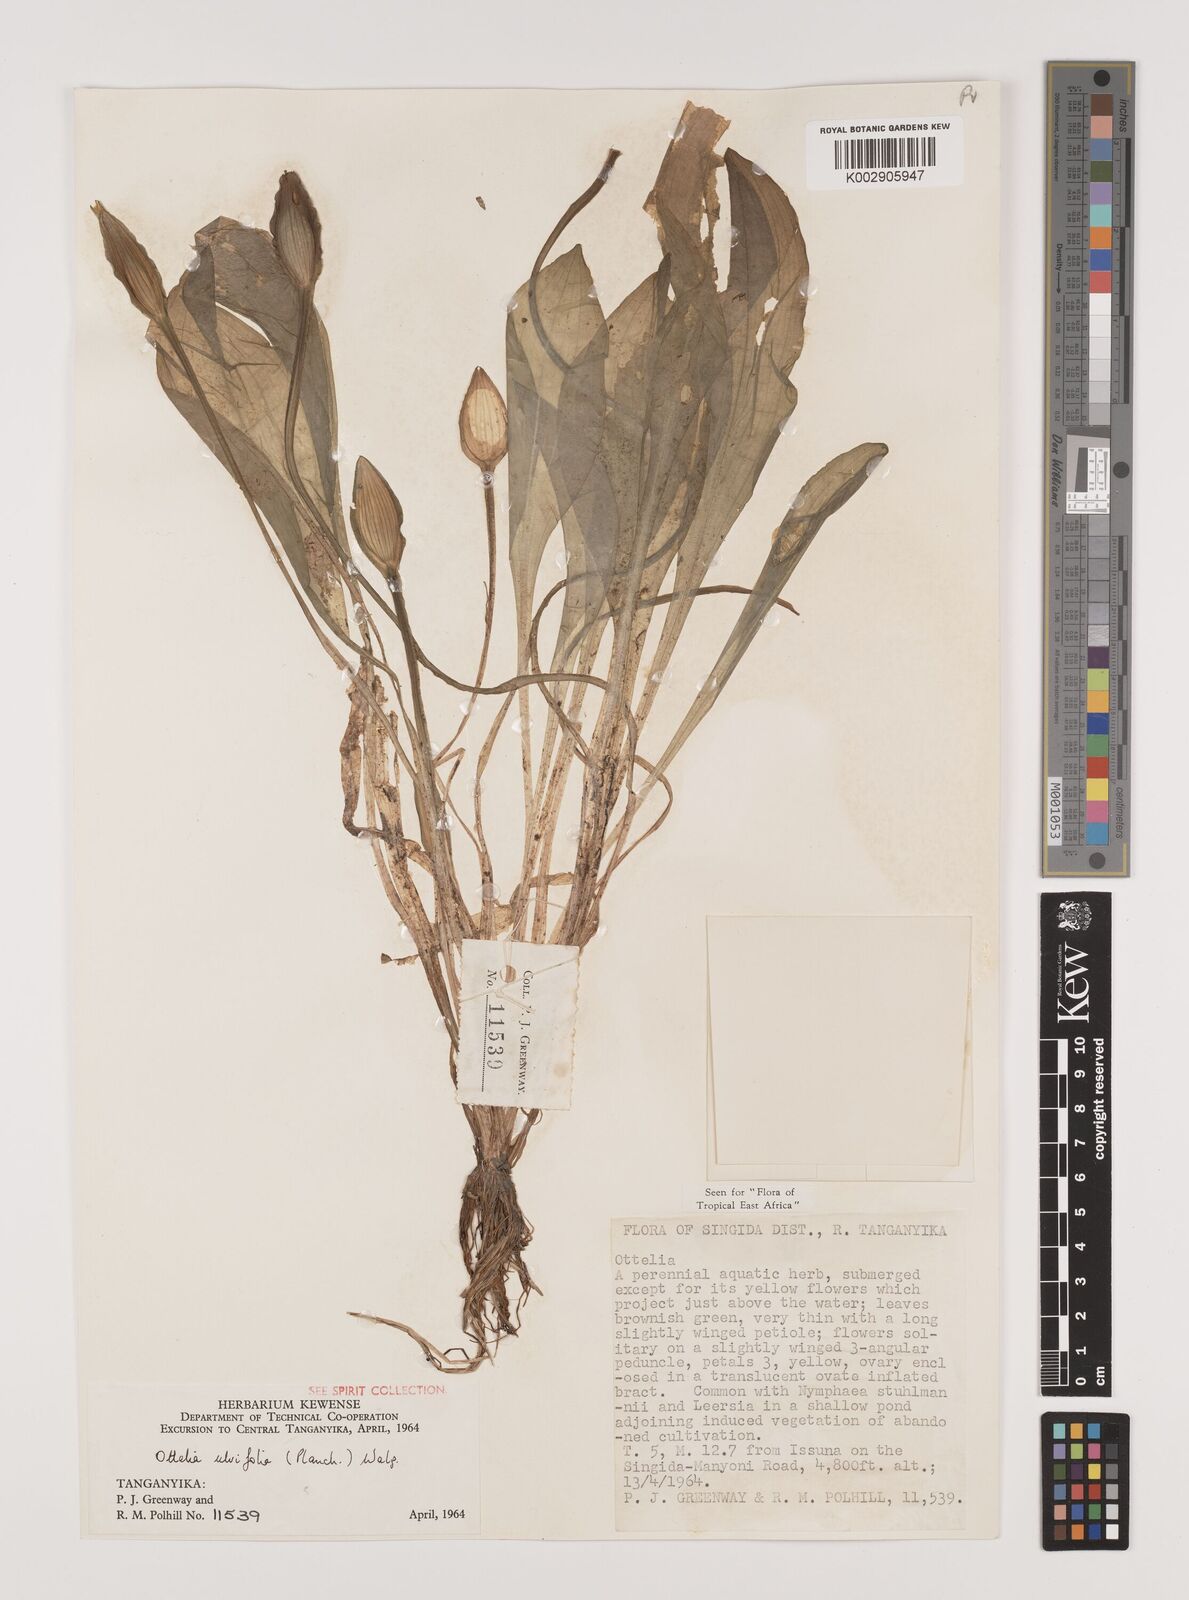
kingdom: Plantae
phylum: Tracheophyta
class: Liliopsida
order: Alismatales
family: Hydrocharitaceae
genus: Ottelia
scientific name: Ottelia ulvifolia
